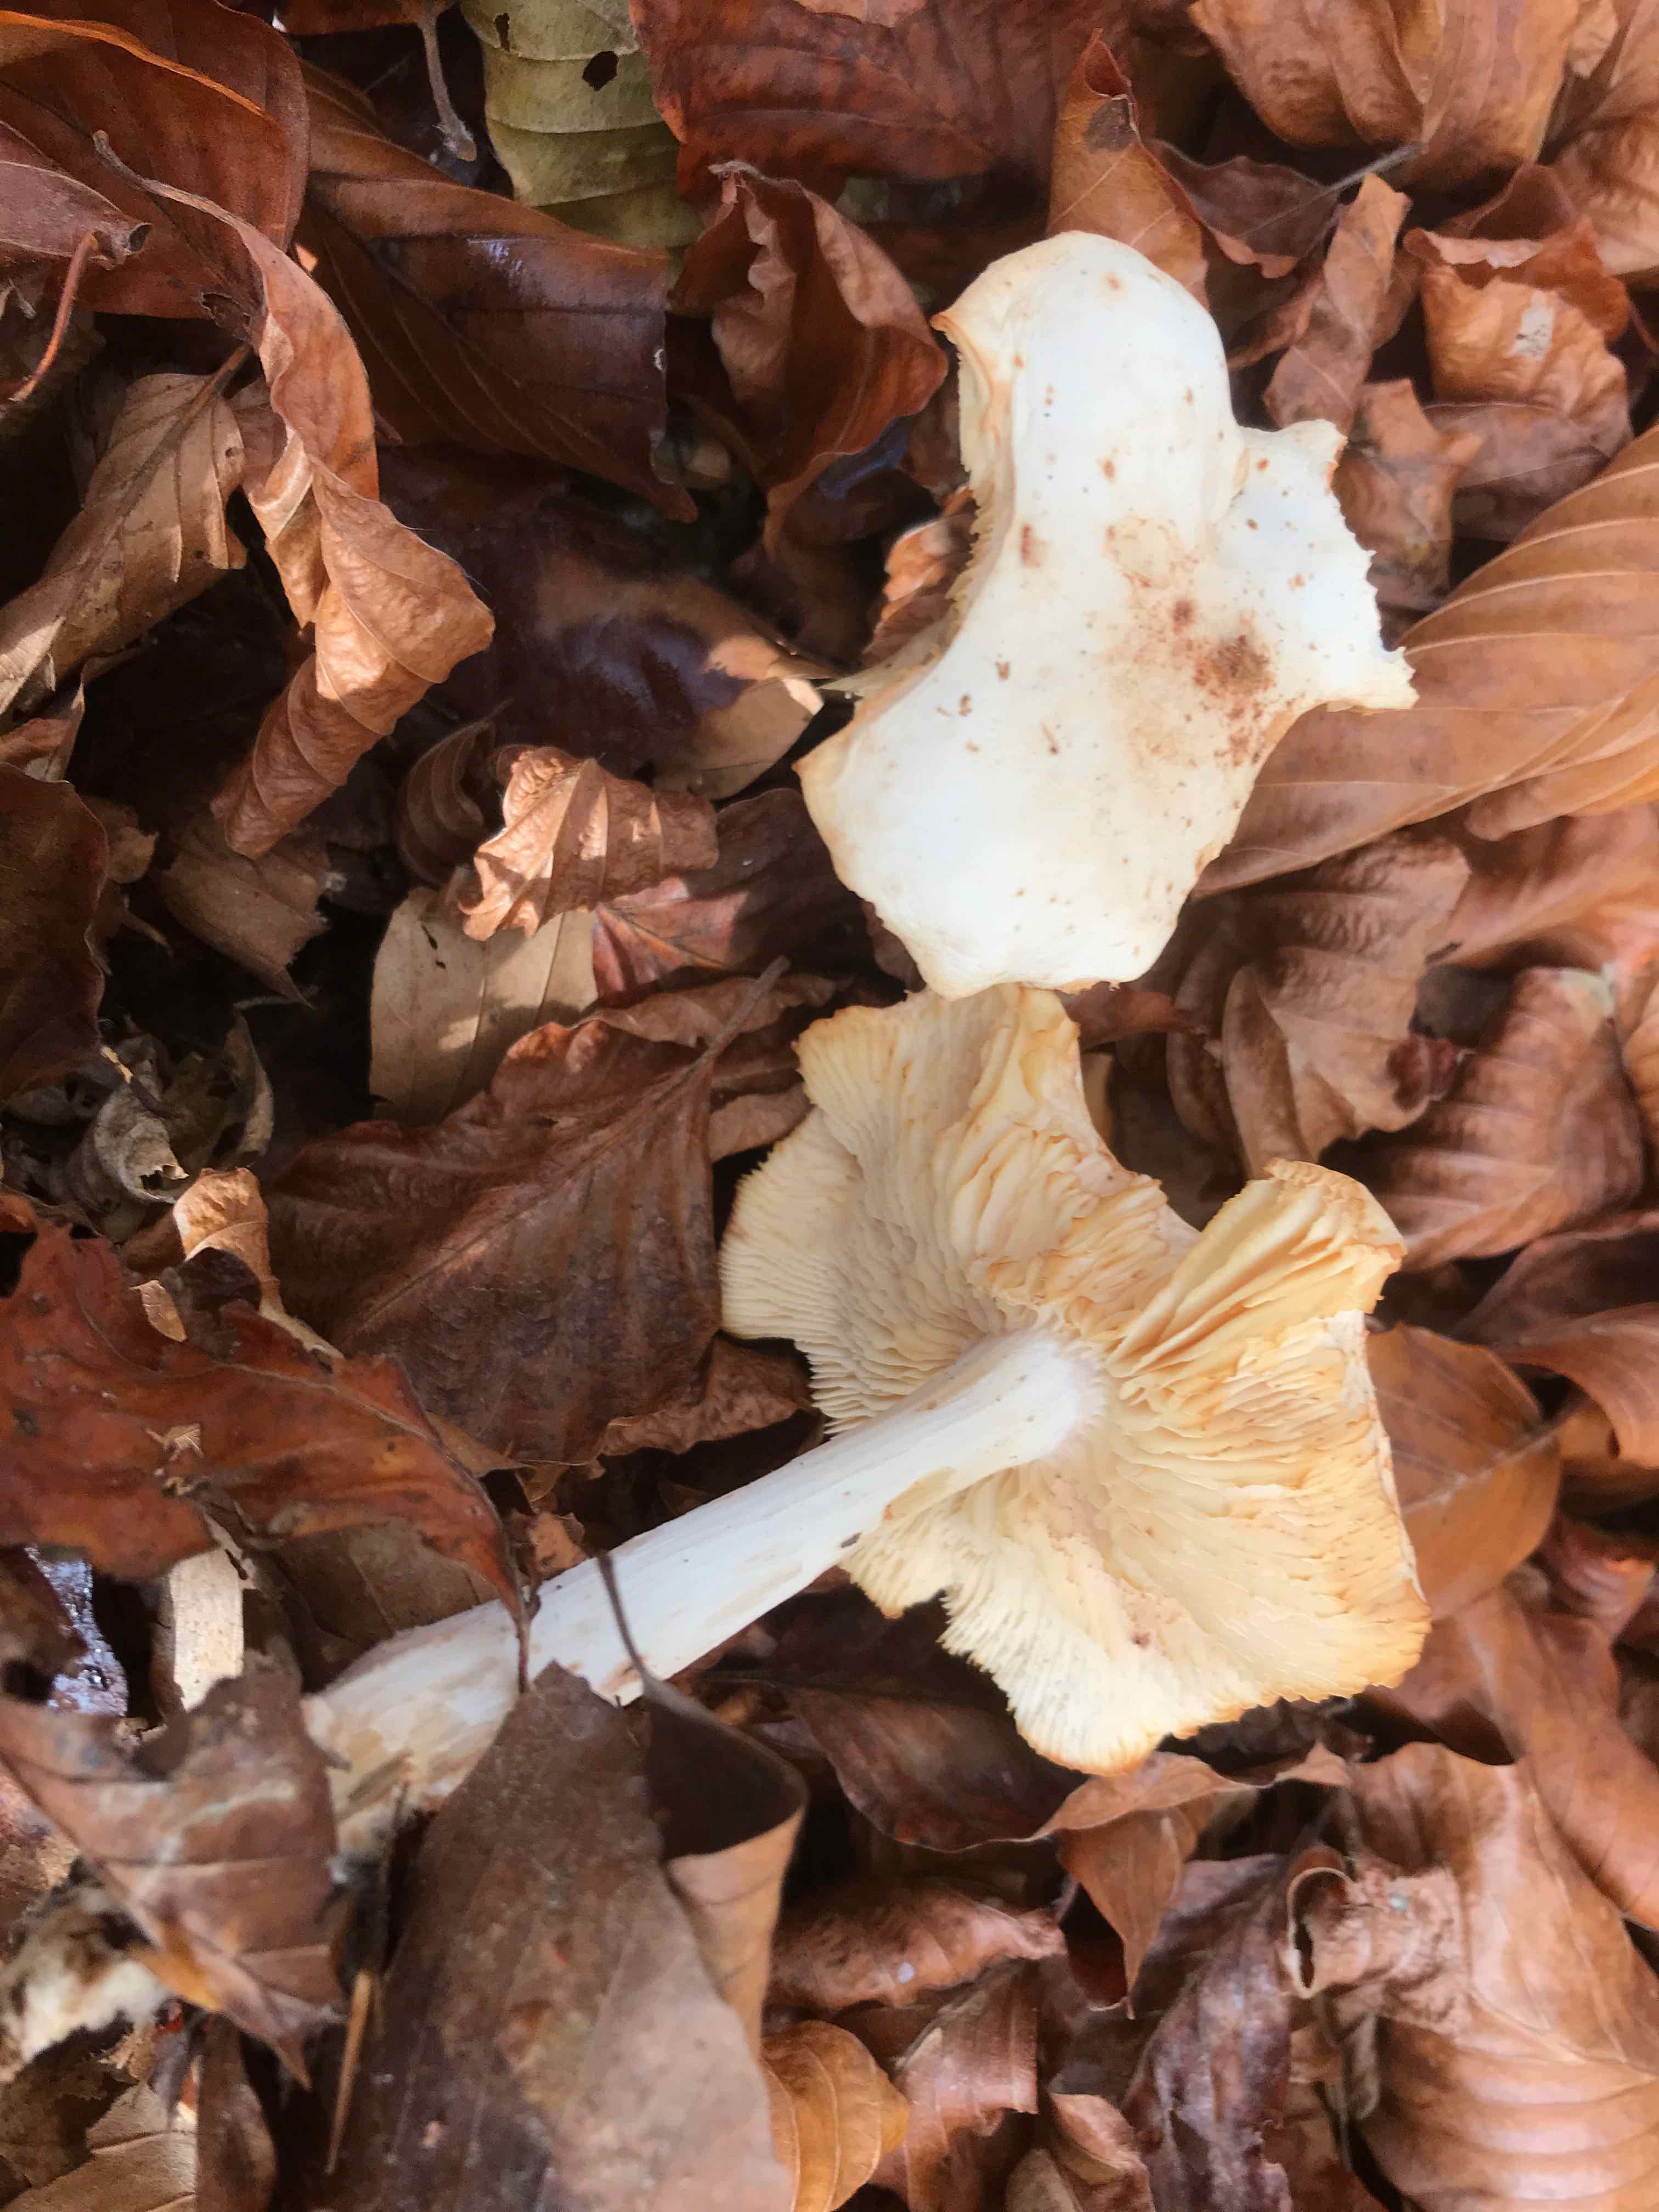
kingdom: Fungi
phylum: Basidiomycota
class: Agaricomycetes
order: Agaricales
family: Tricholomataceae
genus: Tricholoma
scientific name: Tricholoma lascivum
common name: stinkende ridderhat
